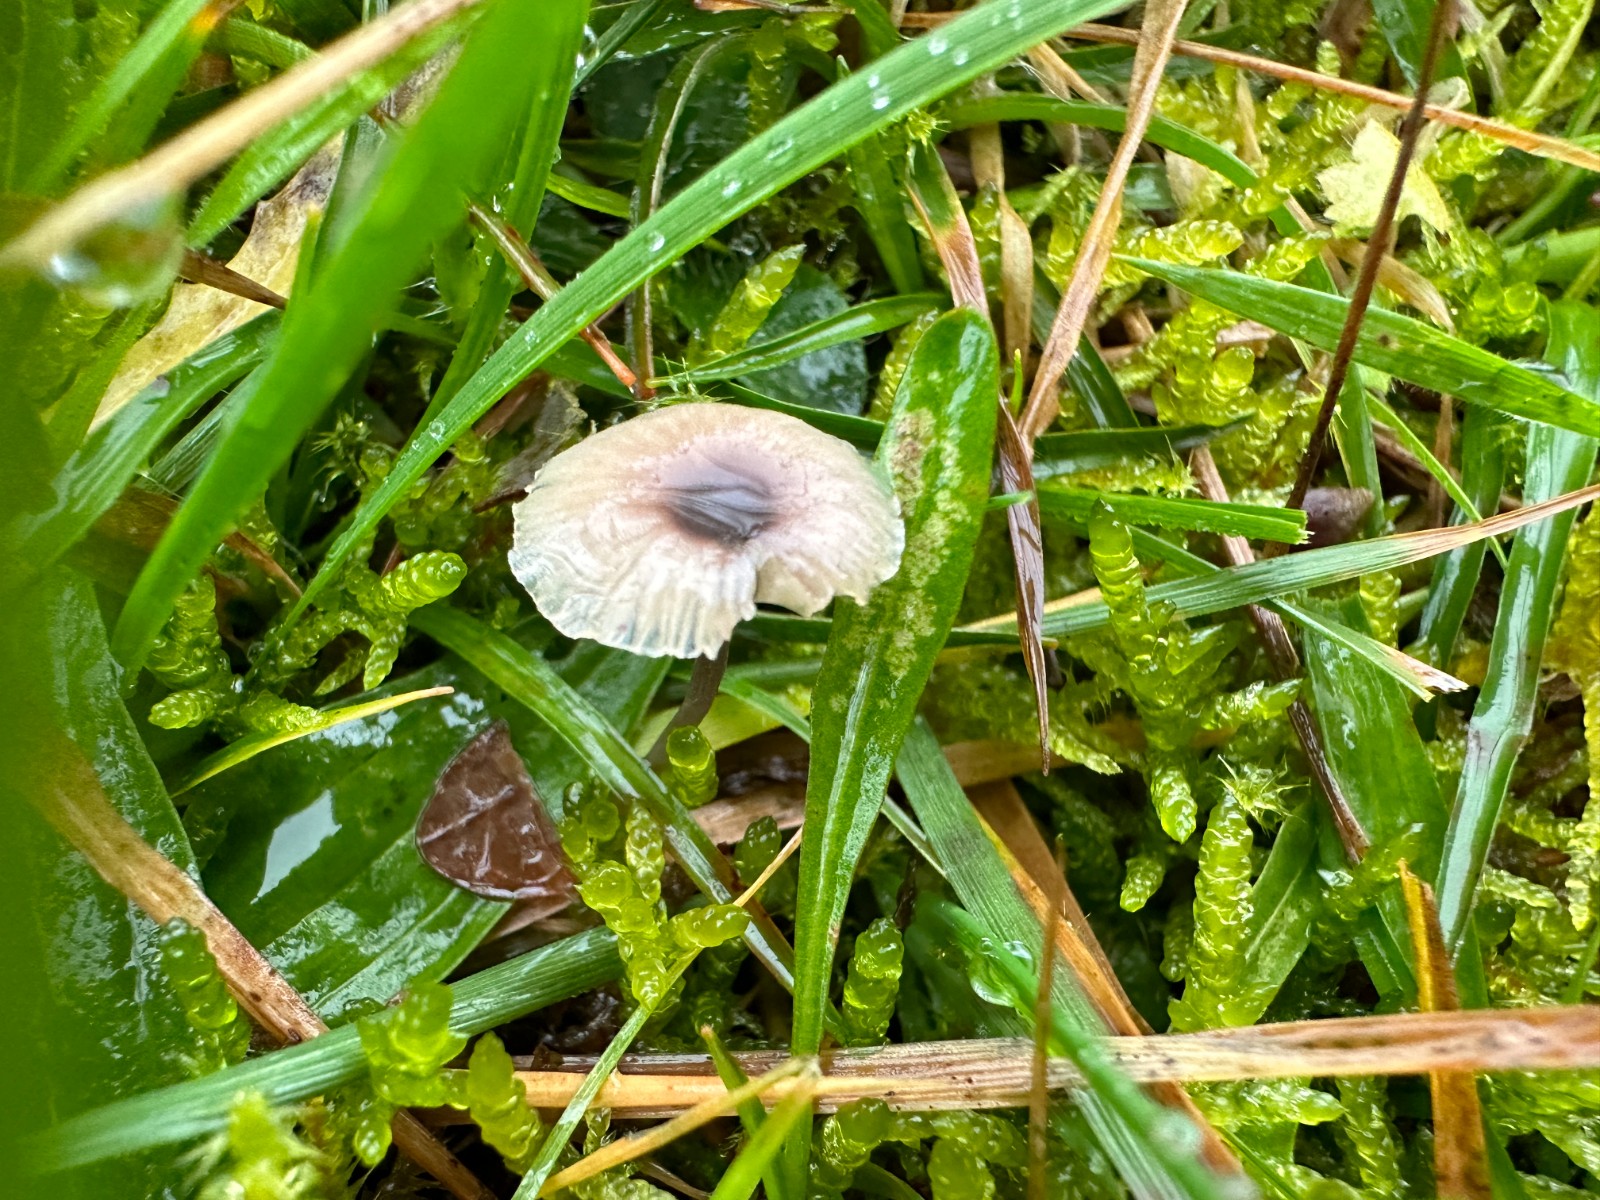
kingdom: Fungi
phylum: Basidiomycota
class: Agaricomycetes
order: Hymenochaetales
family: Rickenellaceae
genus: Rickenella
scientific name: Rickenella swartzii
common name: finstokket mosnavlehat
